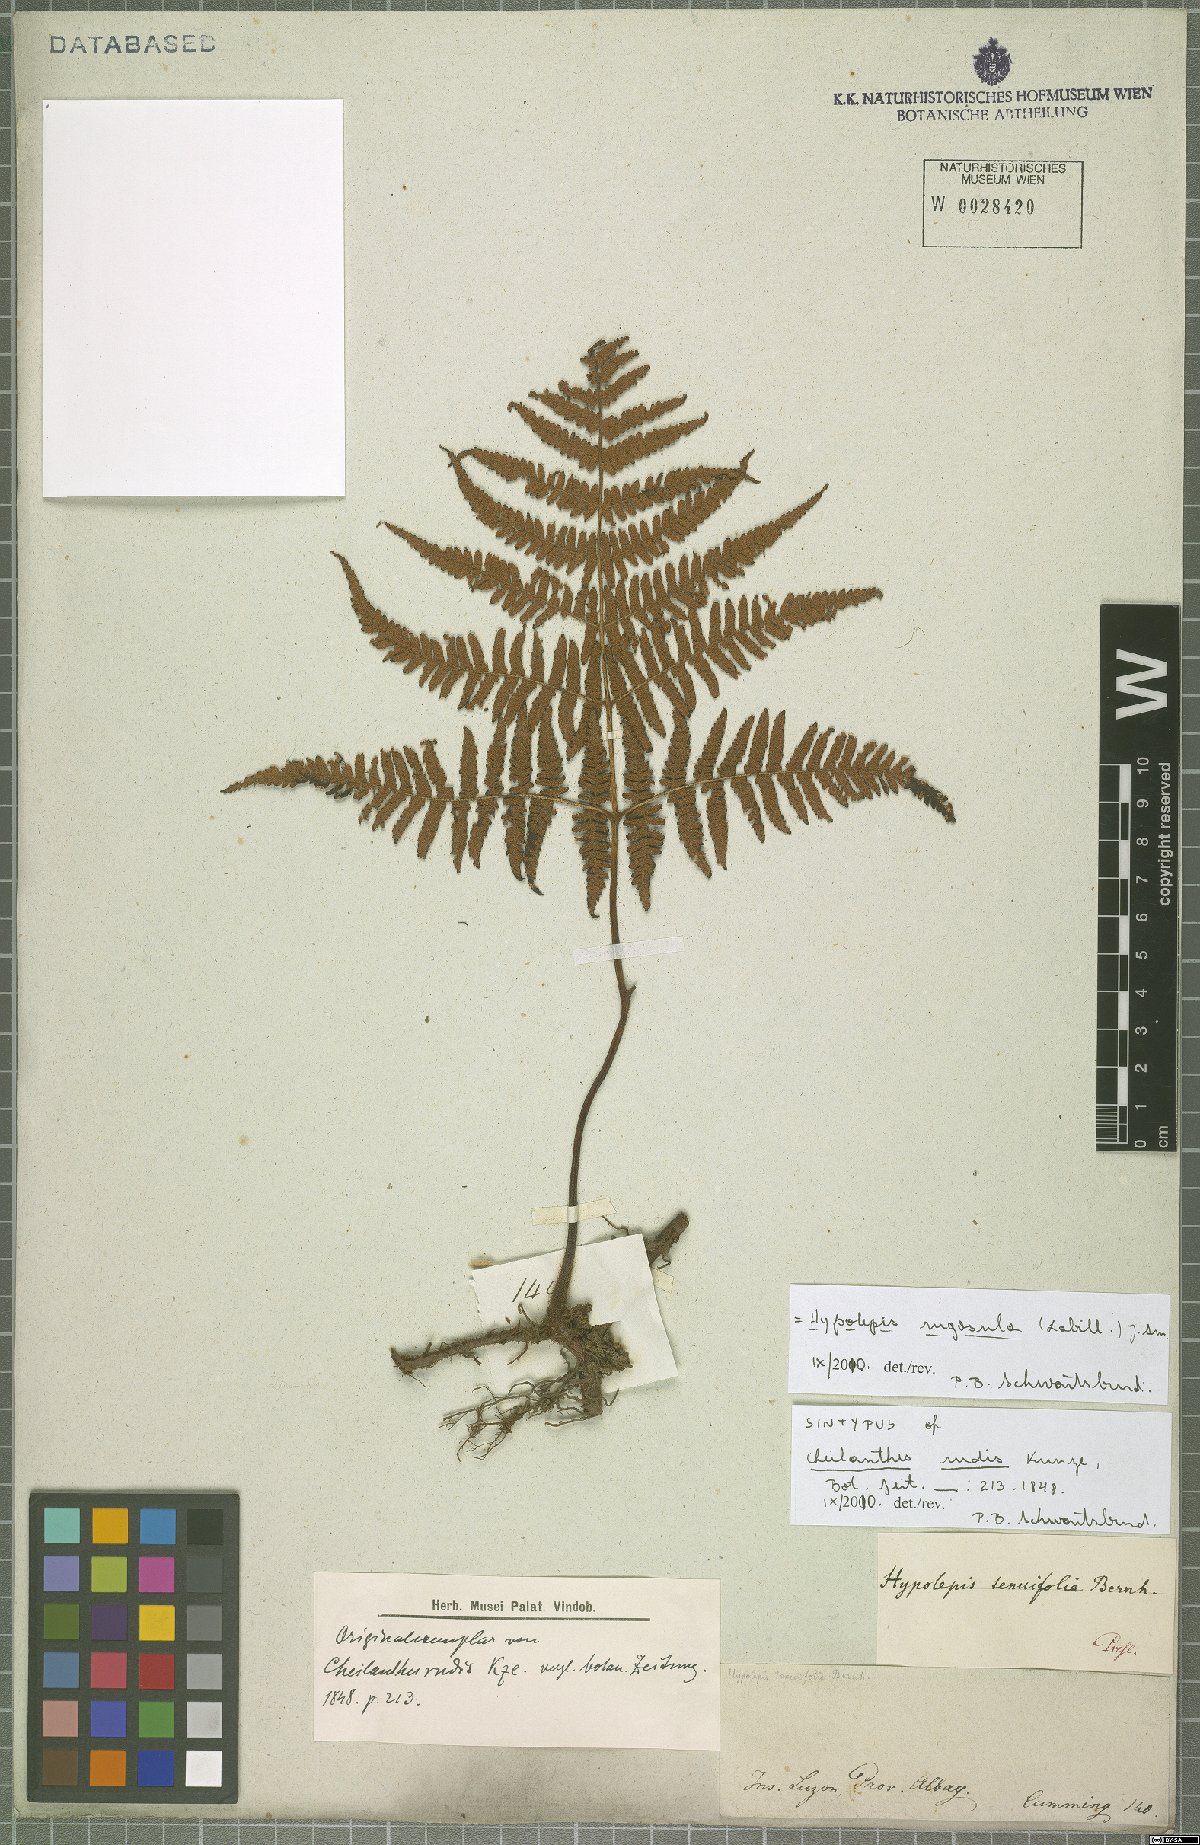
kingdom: Plantae
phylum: Tracheophyta
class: Polypodiopsida
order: Polypodiales
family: Dennstaedtiaceae
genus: Hypolepis
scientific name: Hypolepis rugosula
